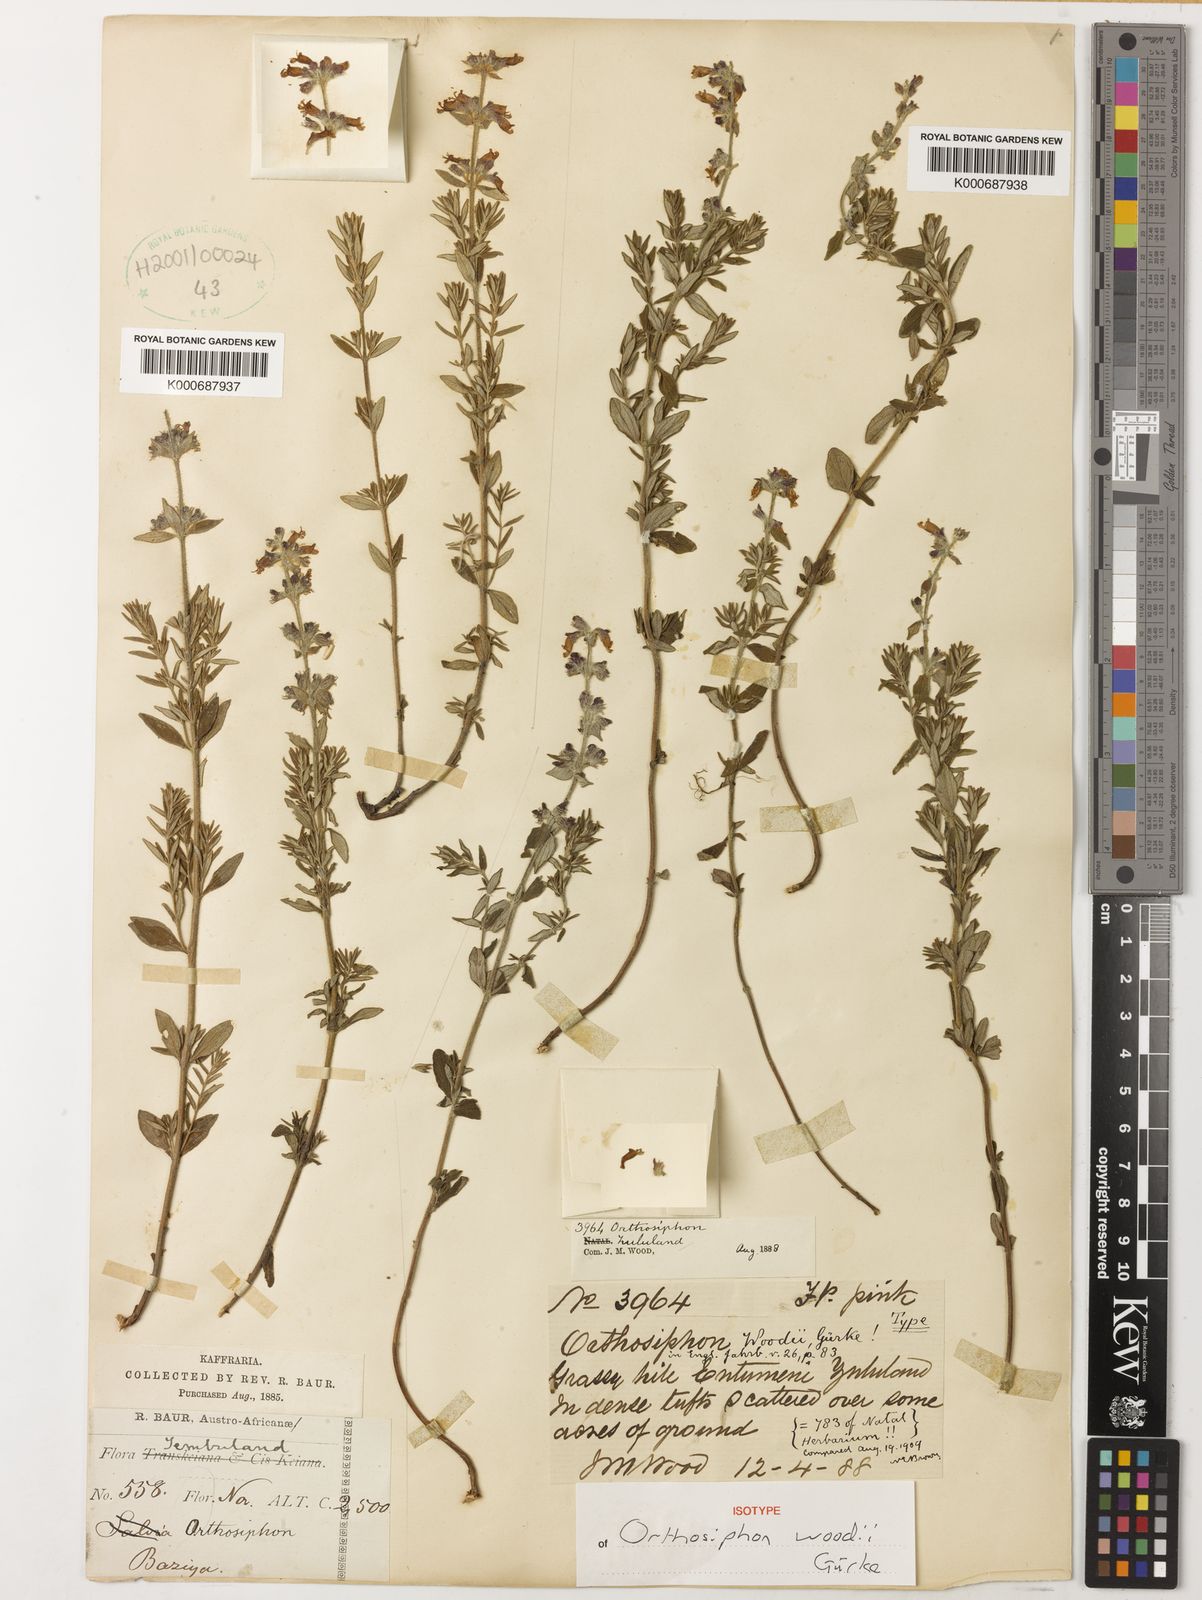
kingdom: Plantae
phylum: Tracheophyta
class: Magnoliopsida
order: Lamiales
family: Lamiaceae
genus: Syncolostemon
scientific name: Syncolostemon teucriifolius
